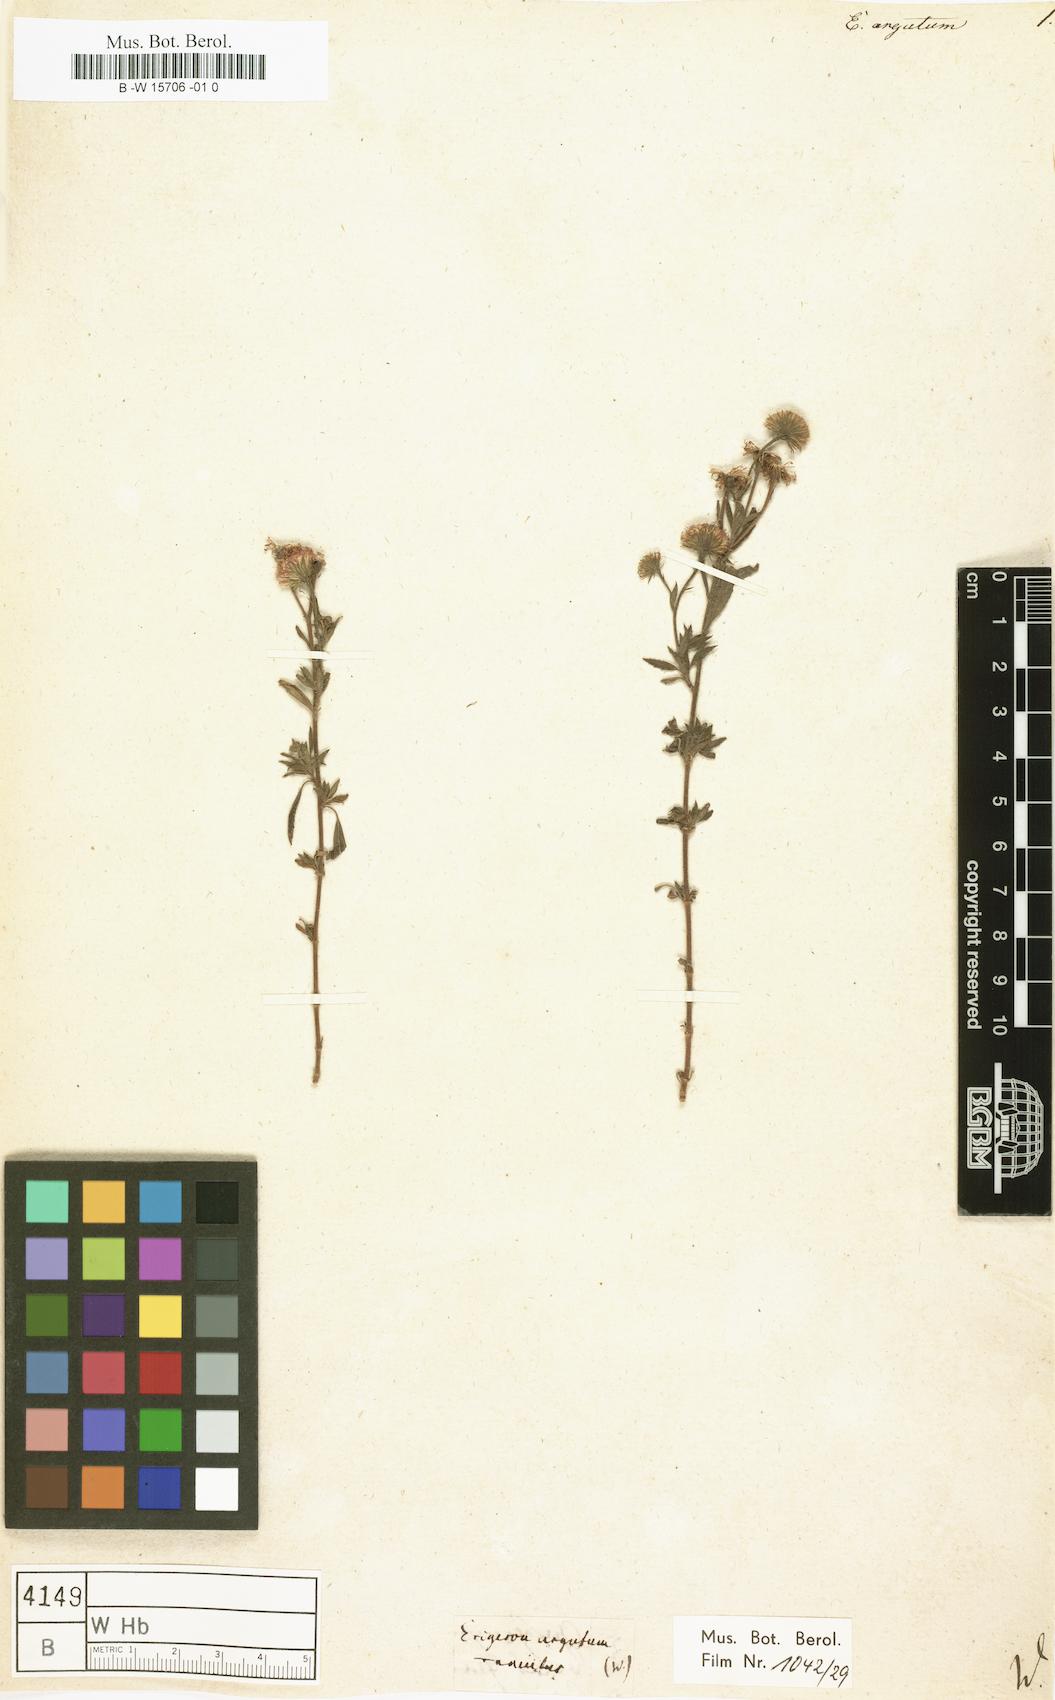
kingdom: Plantae
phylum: Tracheophyta
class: Magnoliopsida
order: Asterales
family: Asteraceae
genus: Erigeron
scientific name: Erigeron cilicicus
